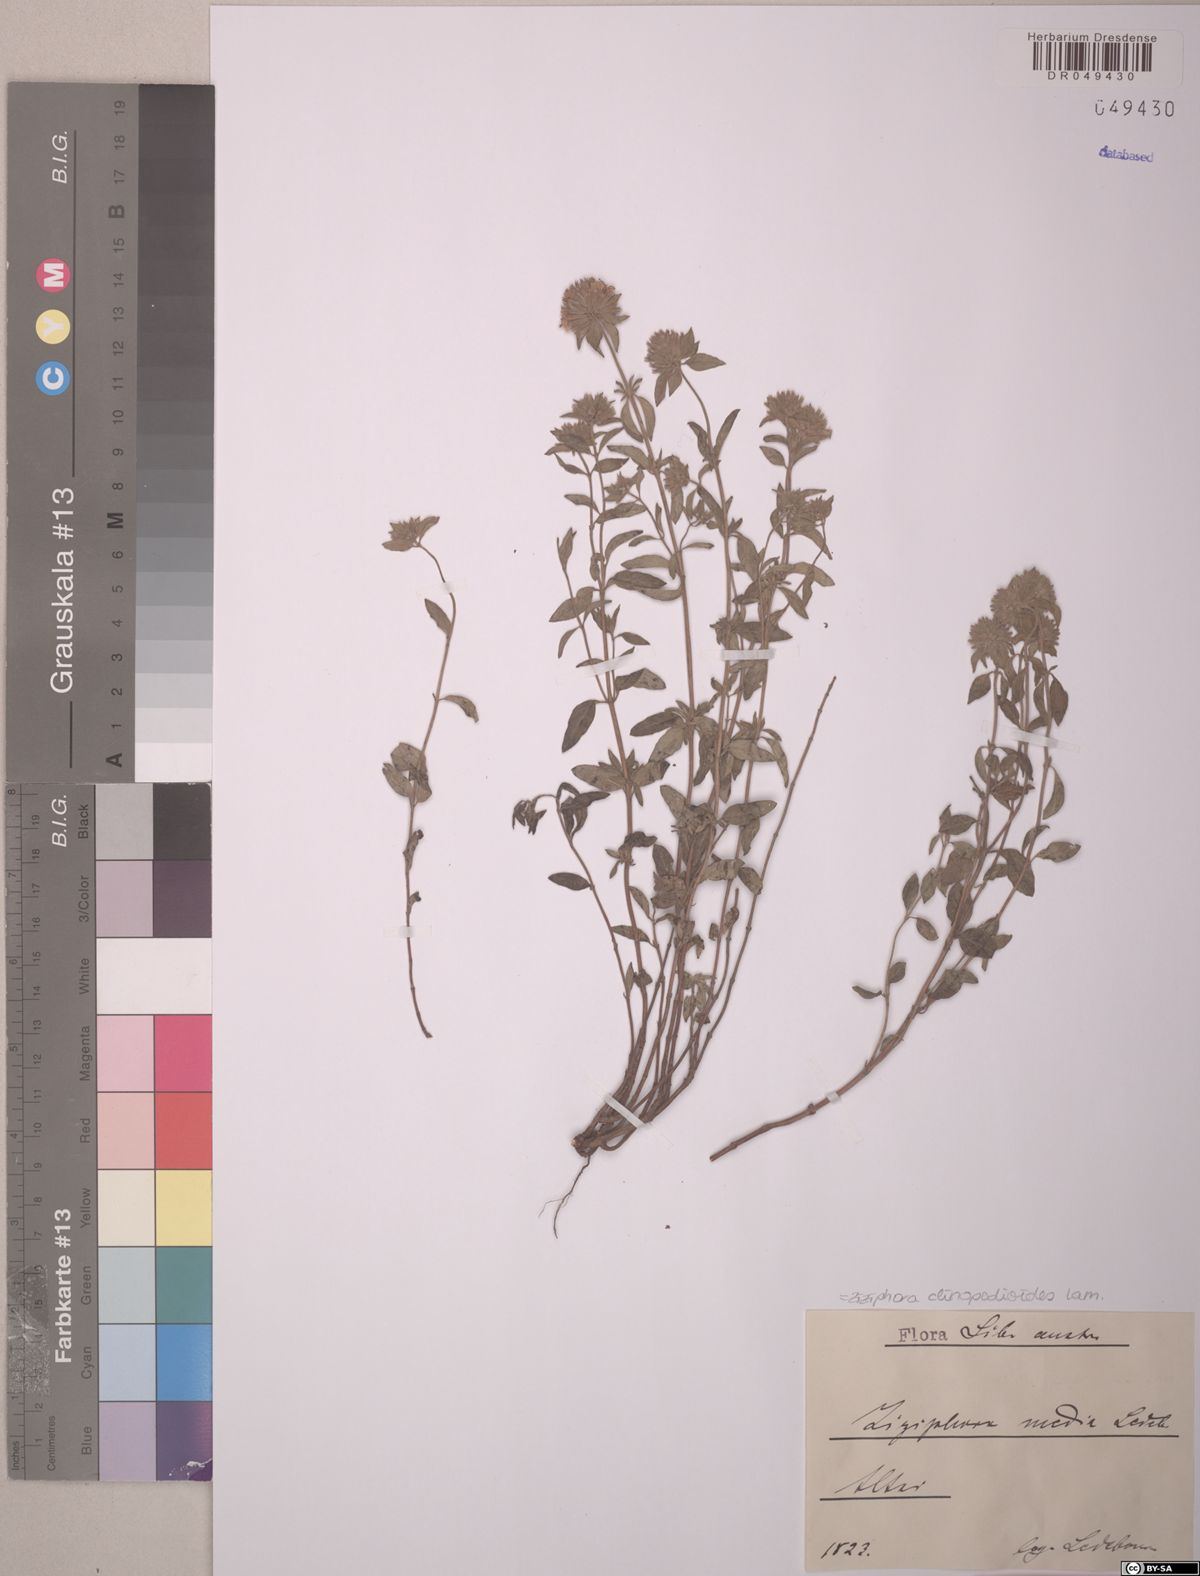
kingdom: Plantae
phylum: Tracheophyta
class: Magnoliopsida
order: Lamiales
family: Lamiaceae
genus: Ziziphora
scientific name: Ziziphora clinopodioides
